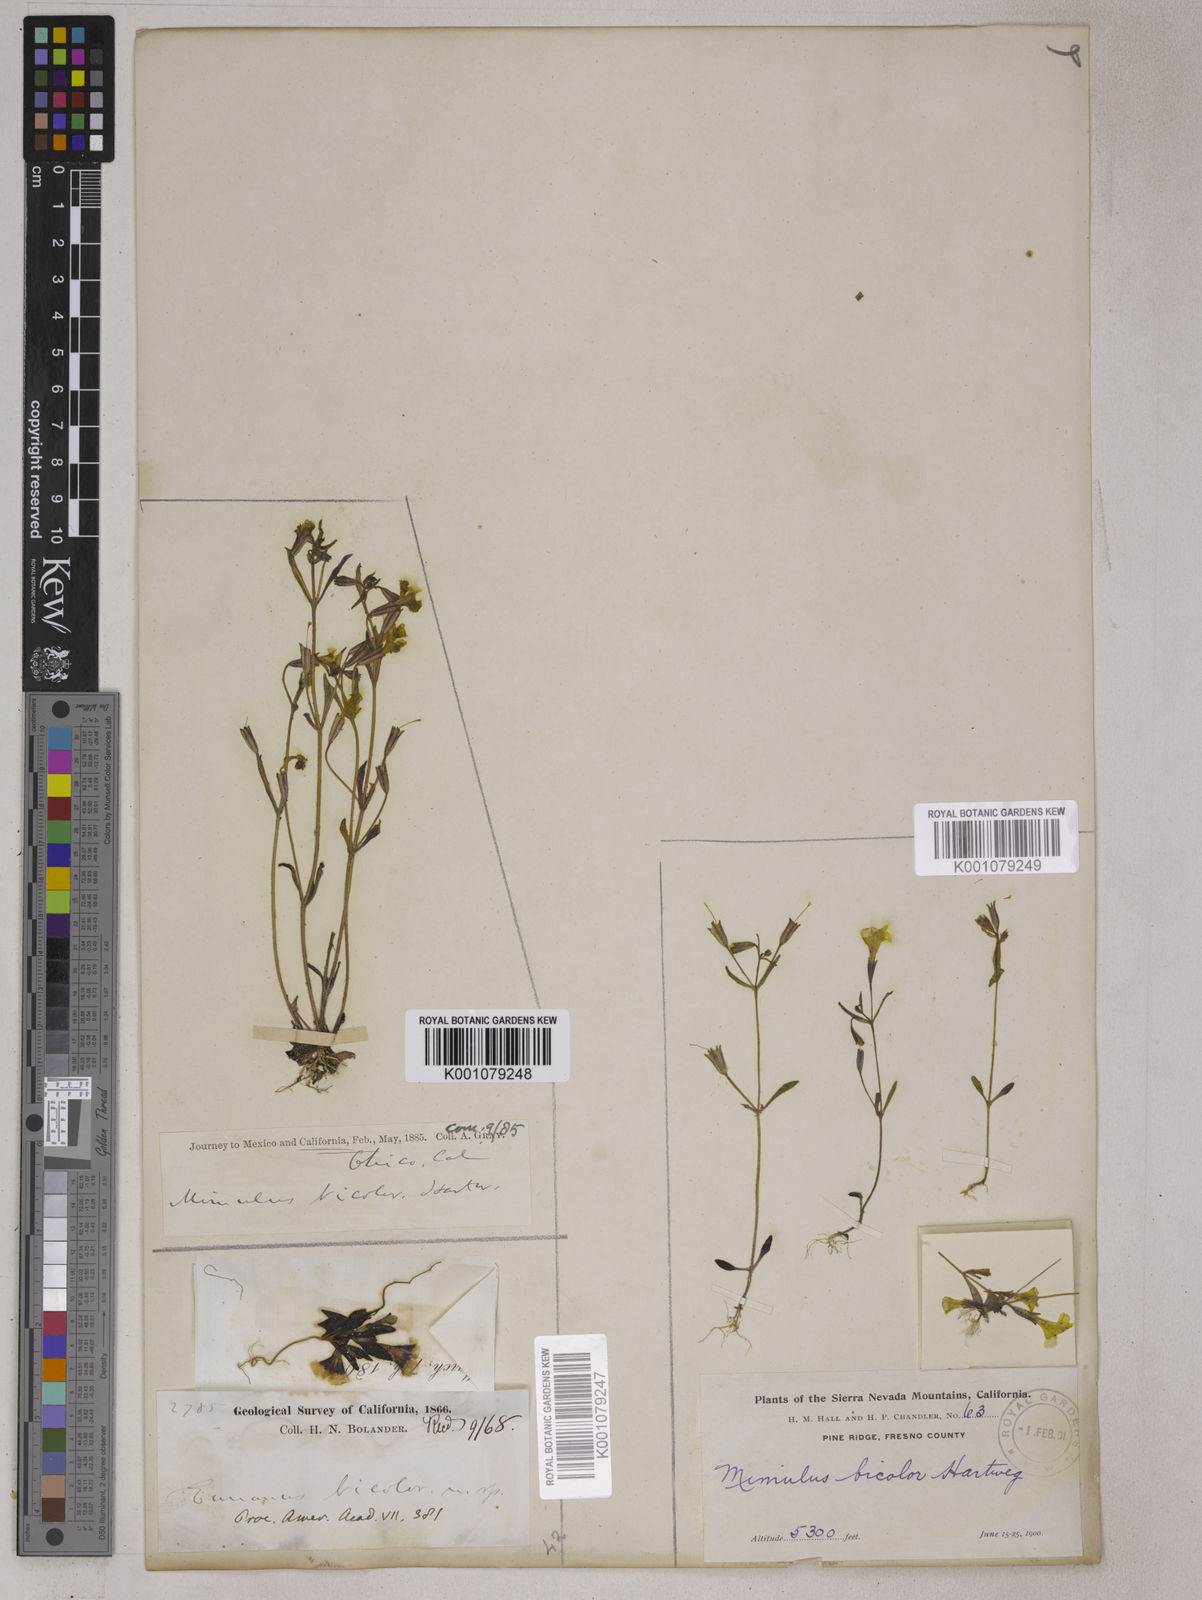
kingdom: Plantae
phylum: Tracheophyta
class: Magnoliopsida
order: Lamiales
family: Phrymaceae
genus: Erythranthe
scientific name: Erythranthe bicolor
